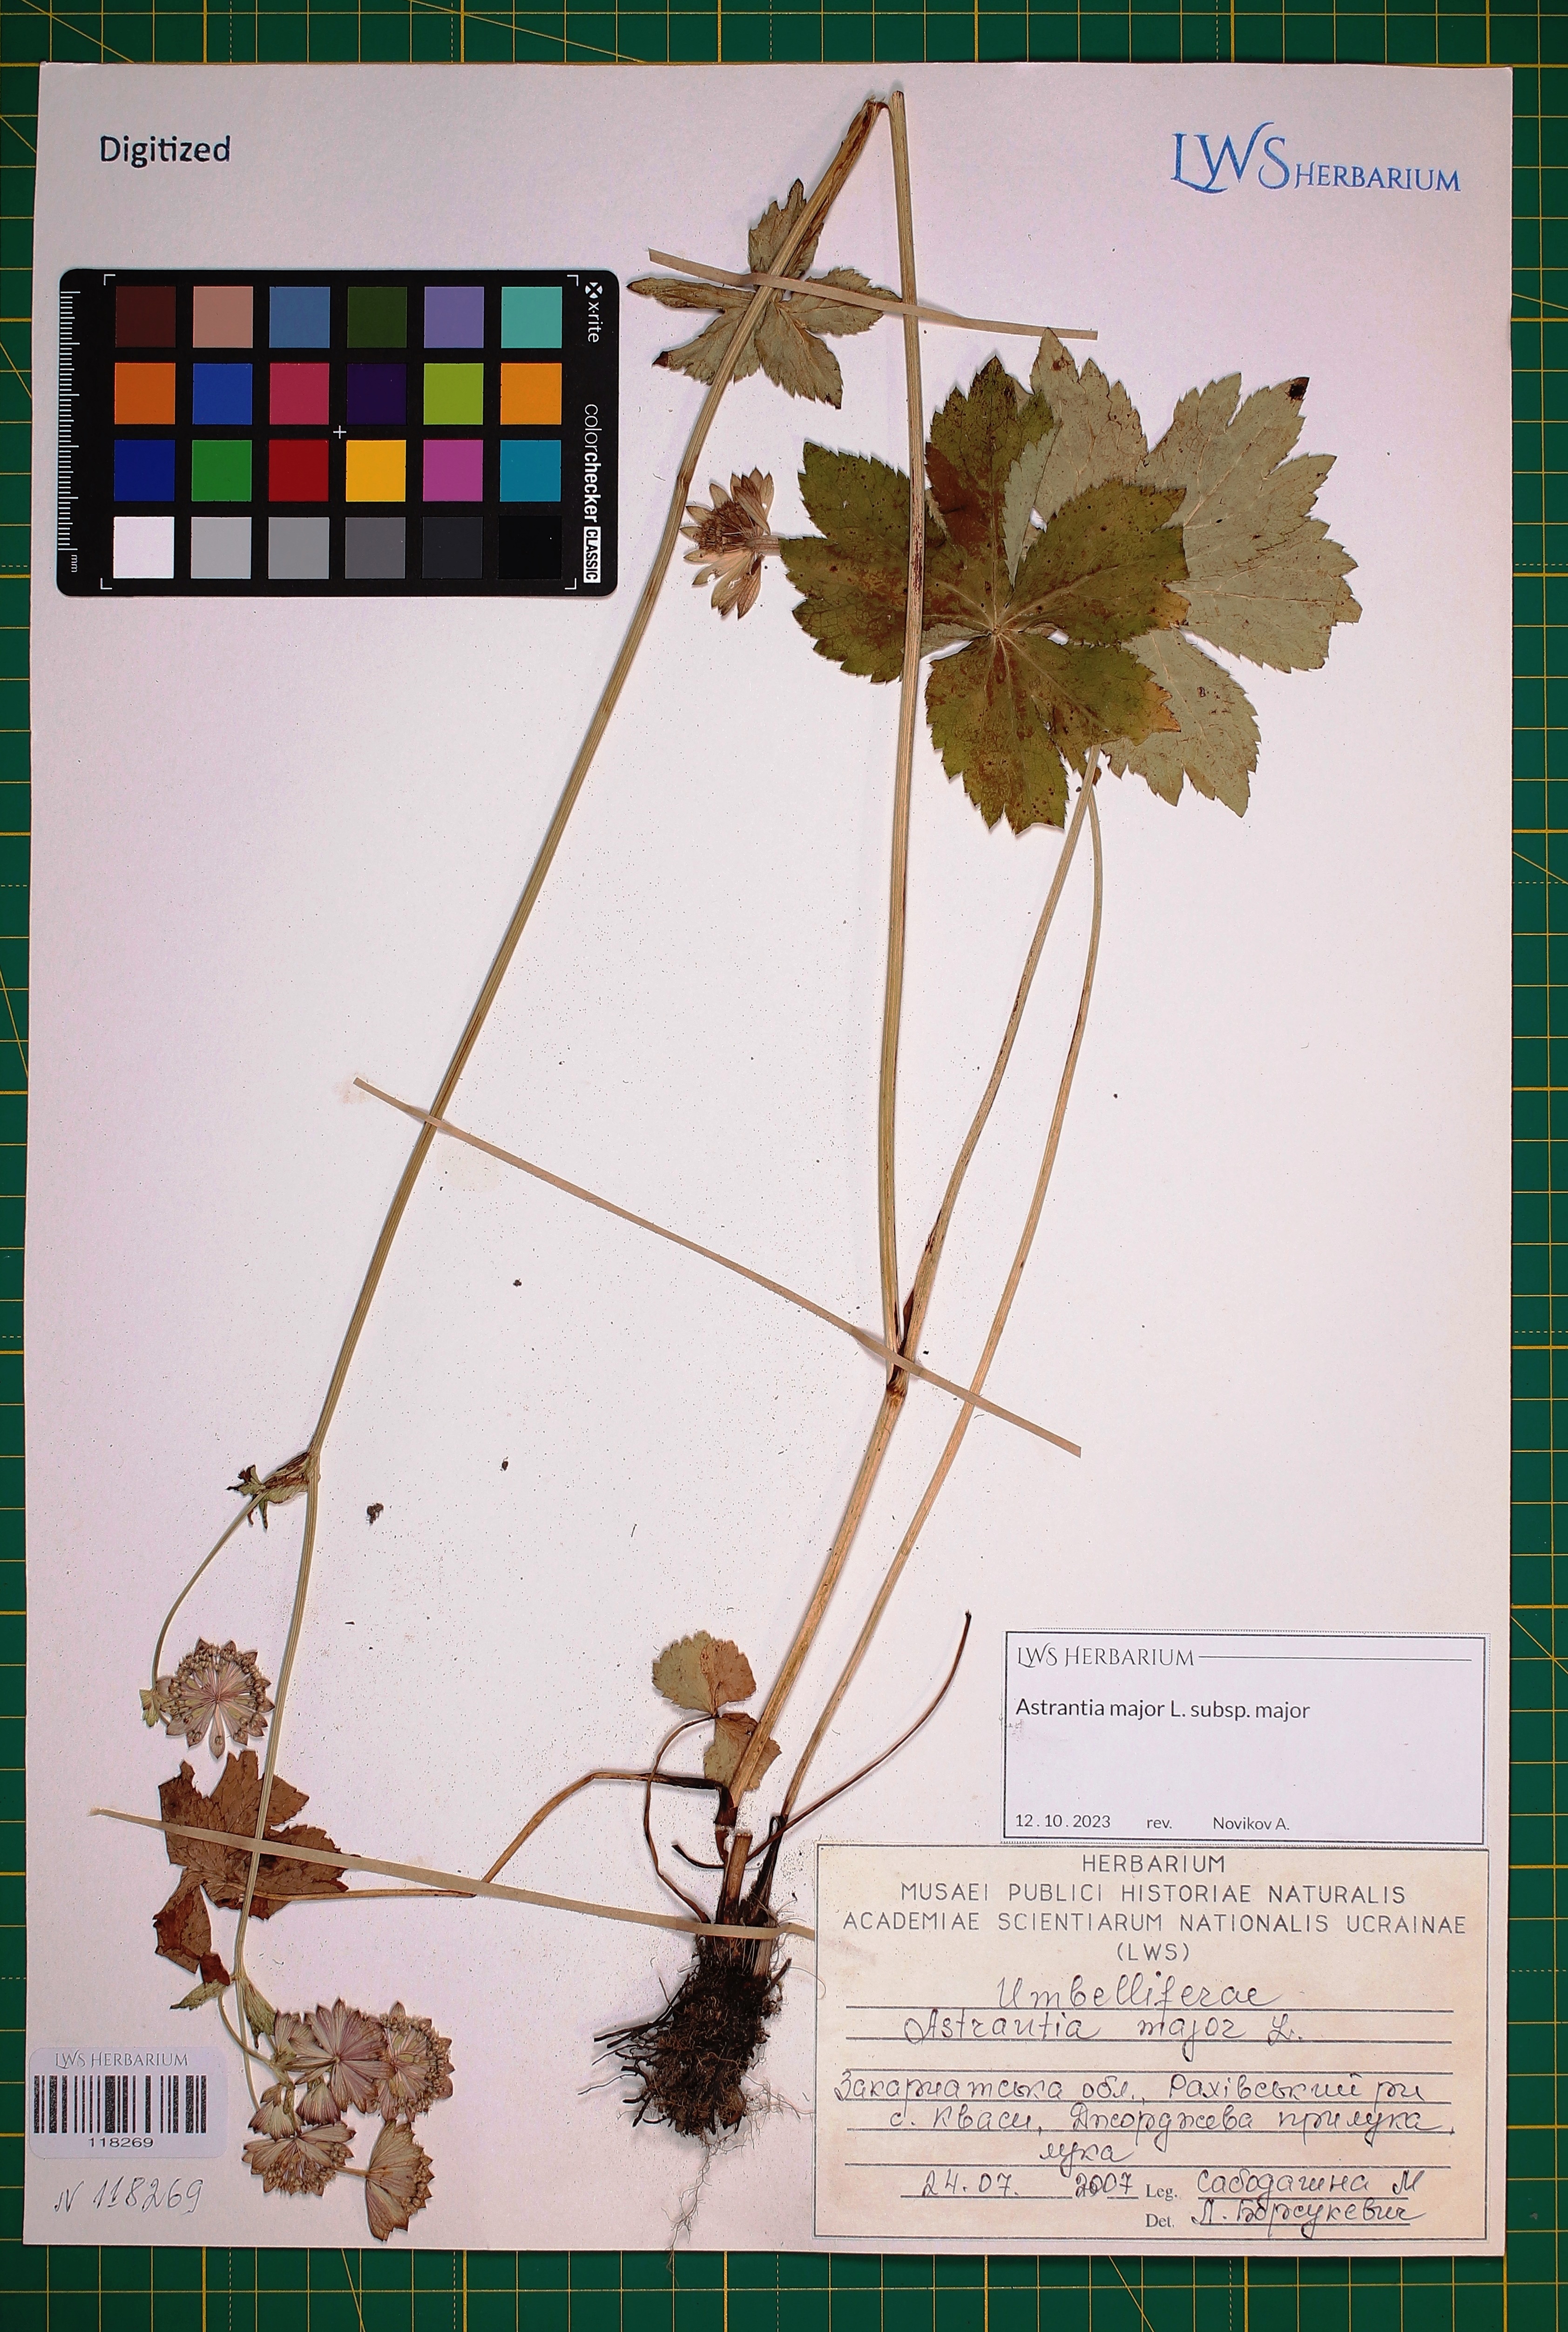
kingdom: Plantae
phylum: Tracheophyta
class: Magnoliopsida
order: Apiales
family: Apiaceae
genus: Astrantia
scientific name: Astrantia major
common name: Greater masterwort
